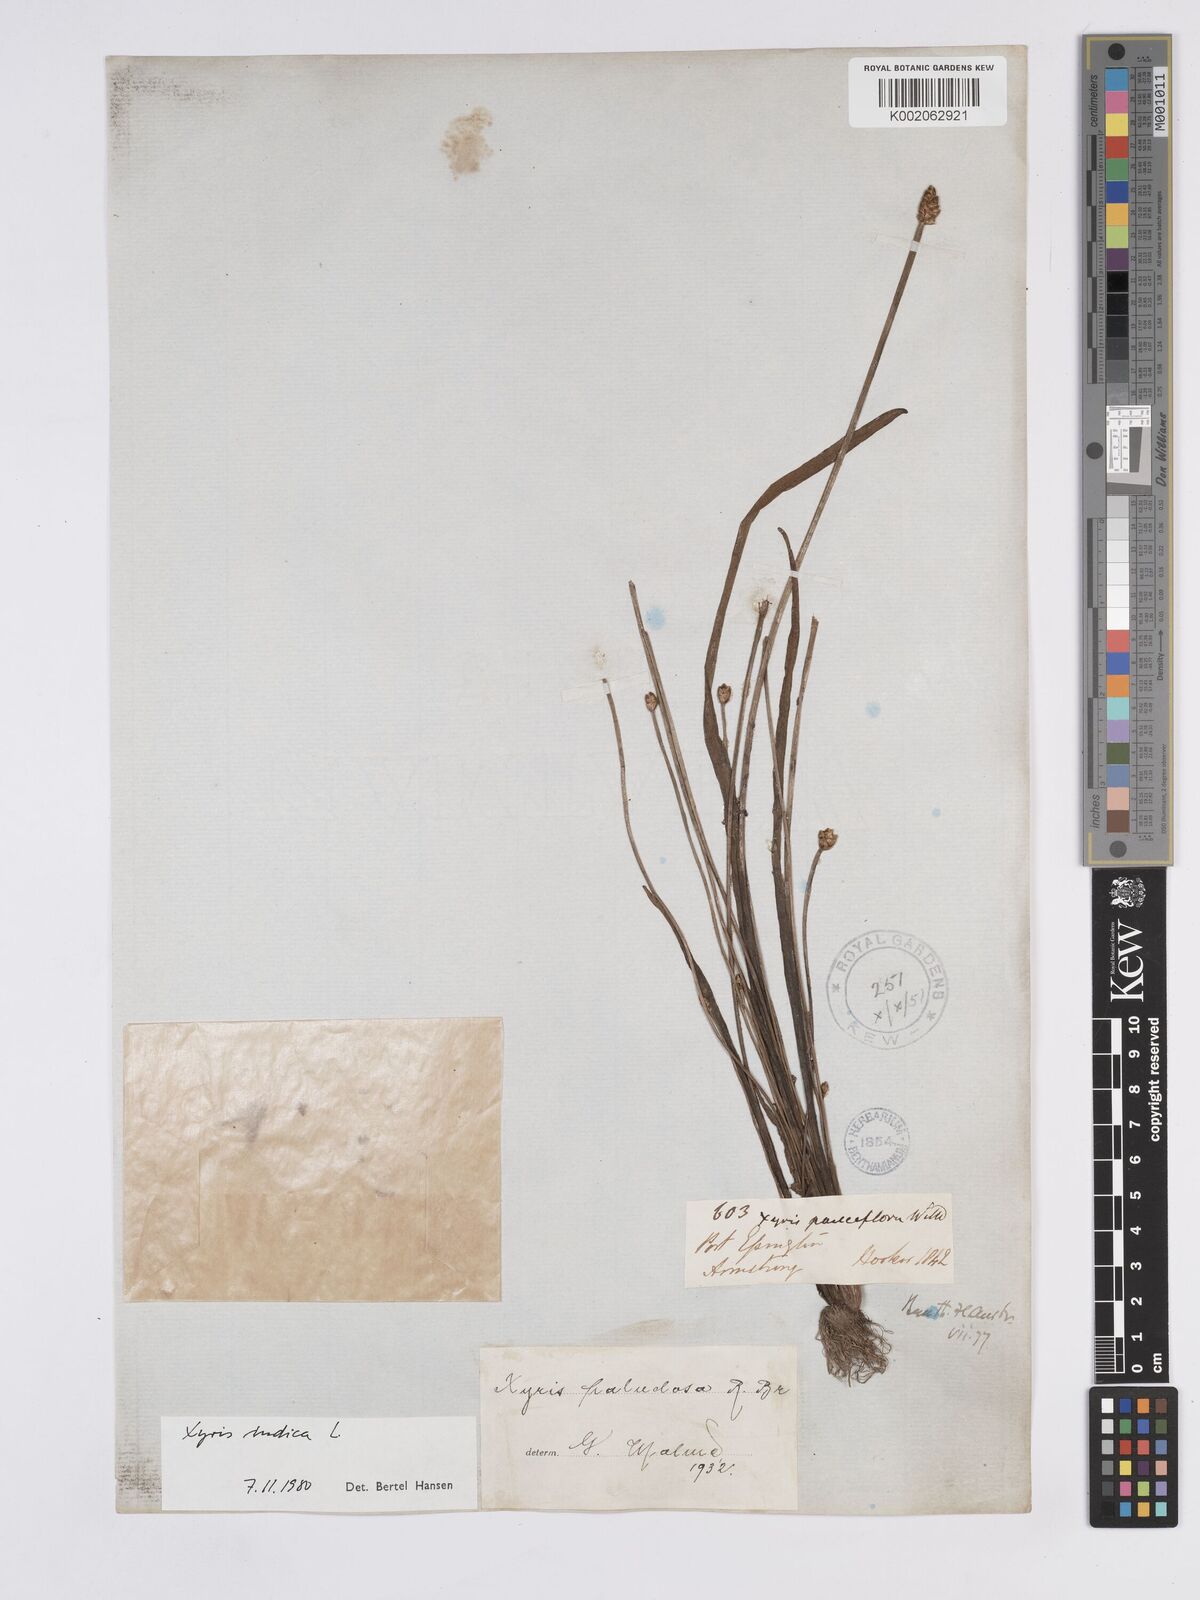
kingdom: Plantae
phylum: Tracheophyta
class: Liliopsida
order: Poales
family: Xyridaceae
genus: Xyris
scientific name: Xyris indica
